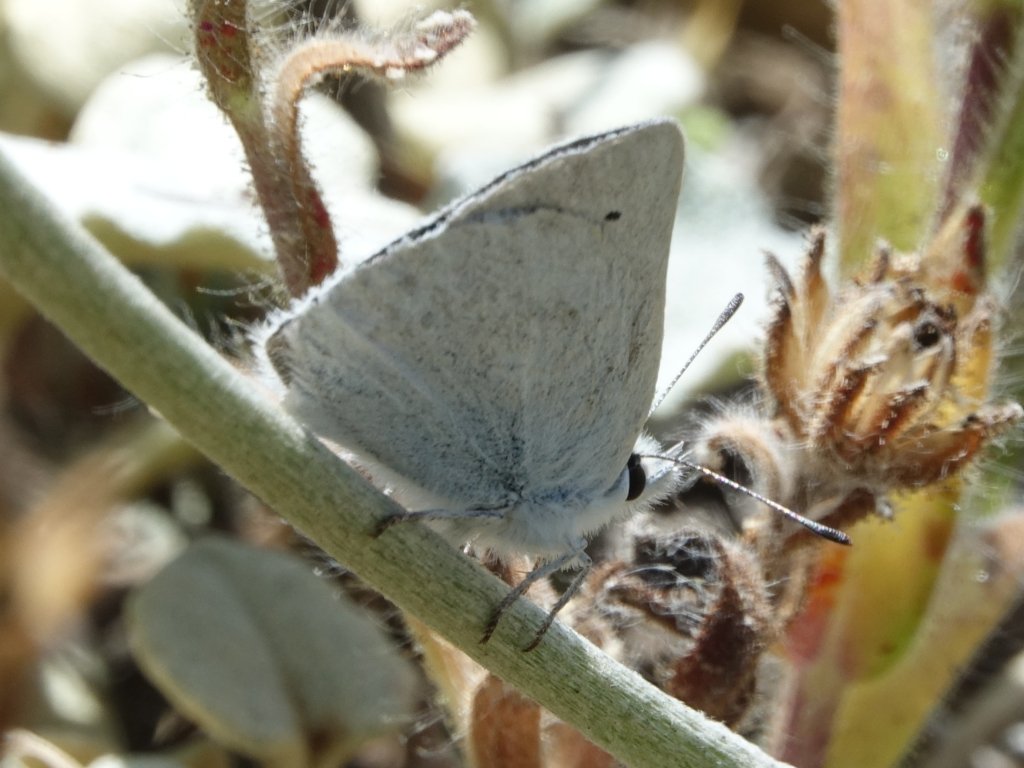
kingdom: Animalia
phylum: Arthropoda
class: Insecta
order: Lepidoptera
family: Lycaenidae
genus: Lycaena
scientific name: Lycaena heteronea
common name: Blue Copper
